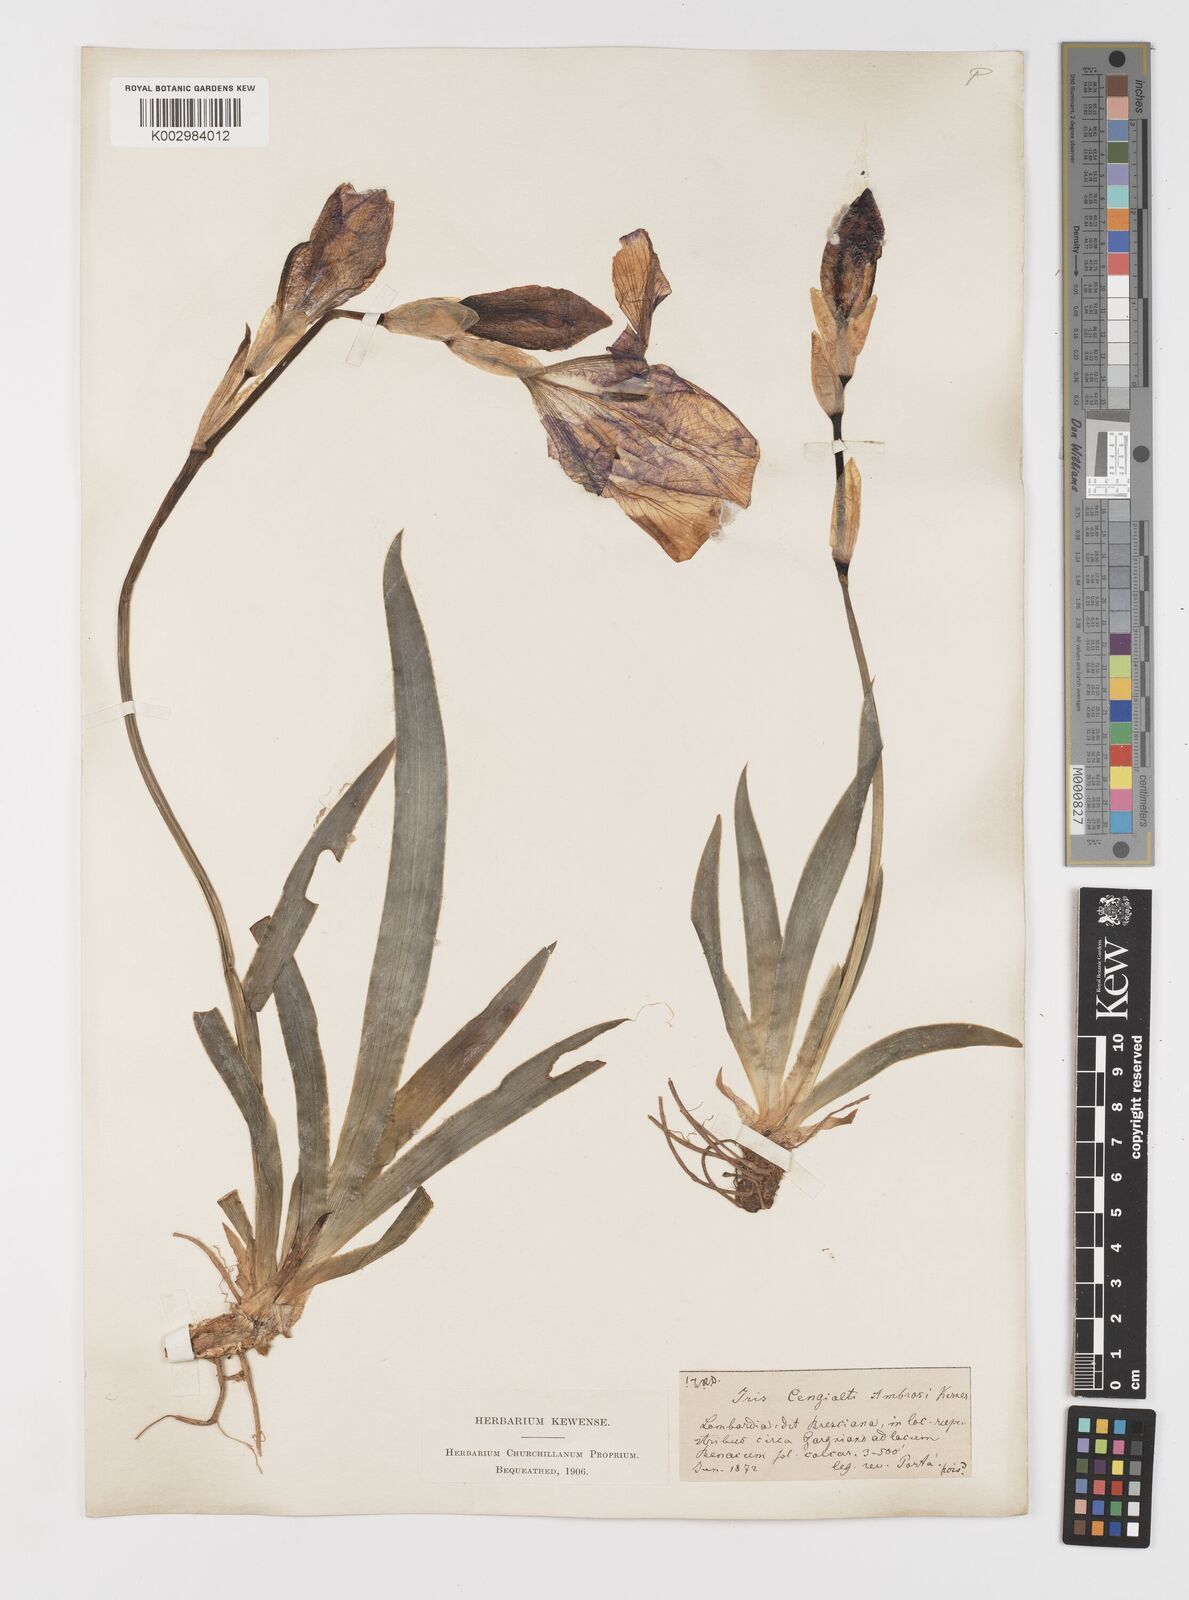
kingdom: Plantae
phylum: Tracheophyta
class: Liliopsida
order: Asparagales
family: Iridaceae
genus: Iris
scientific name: Iris pallida
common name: Sweet iris
